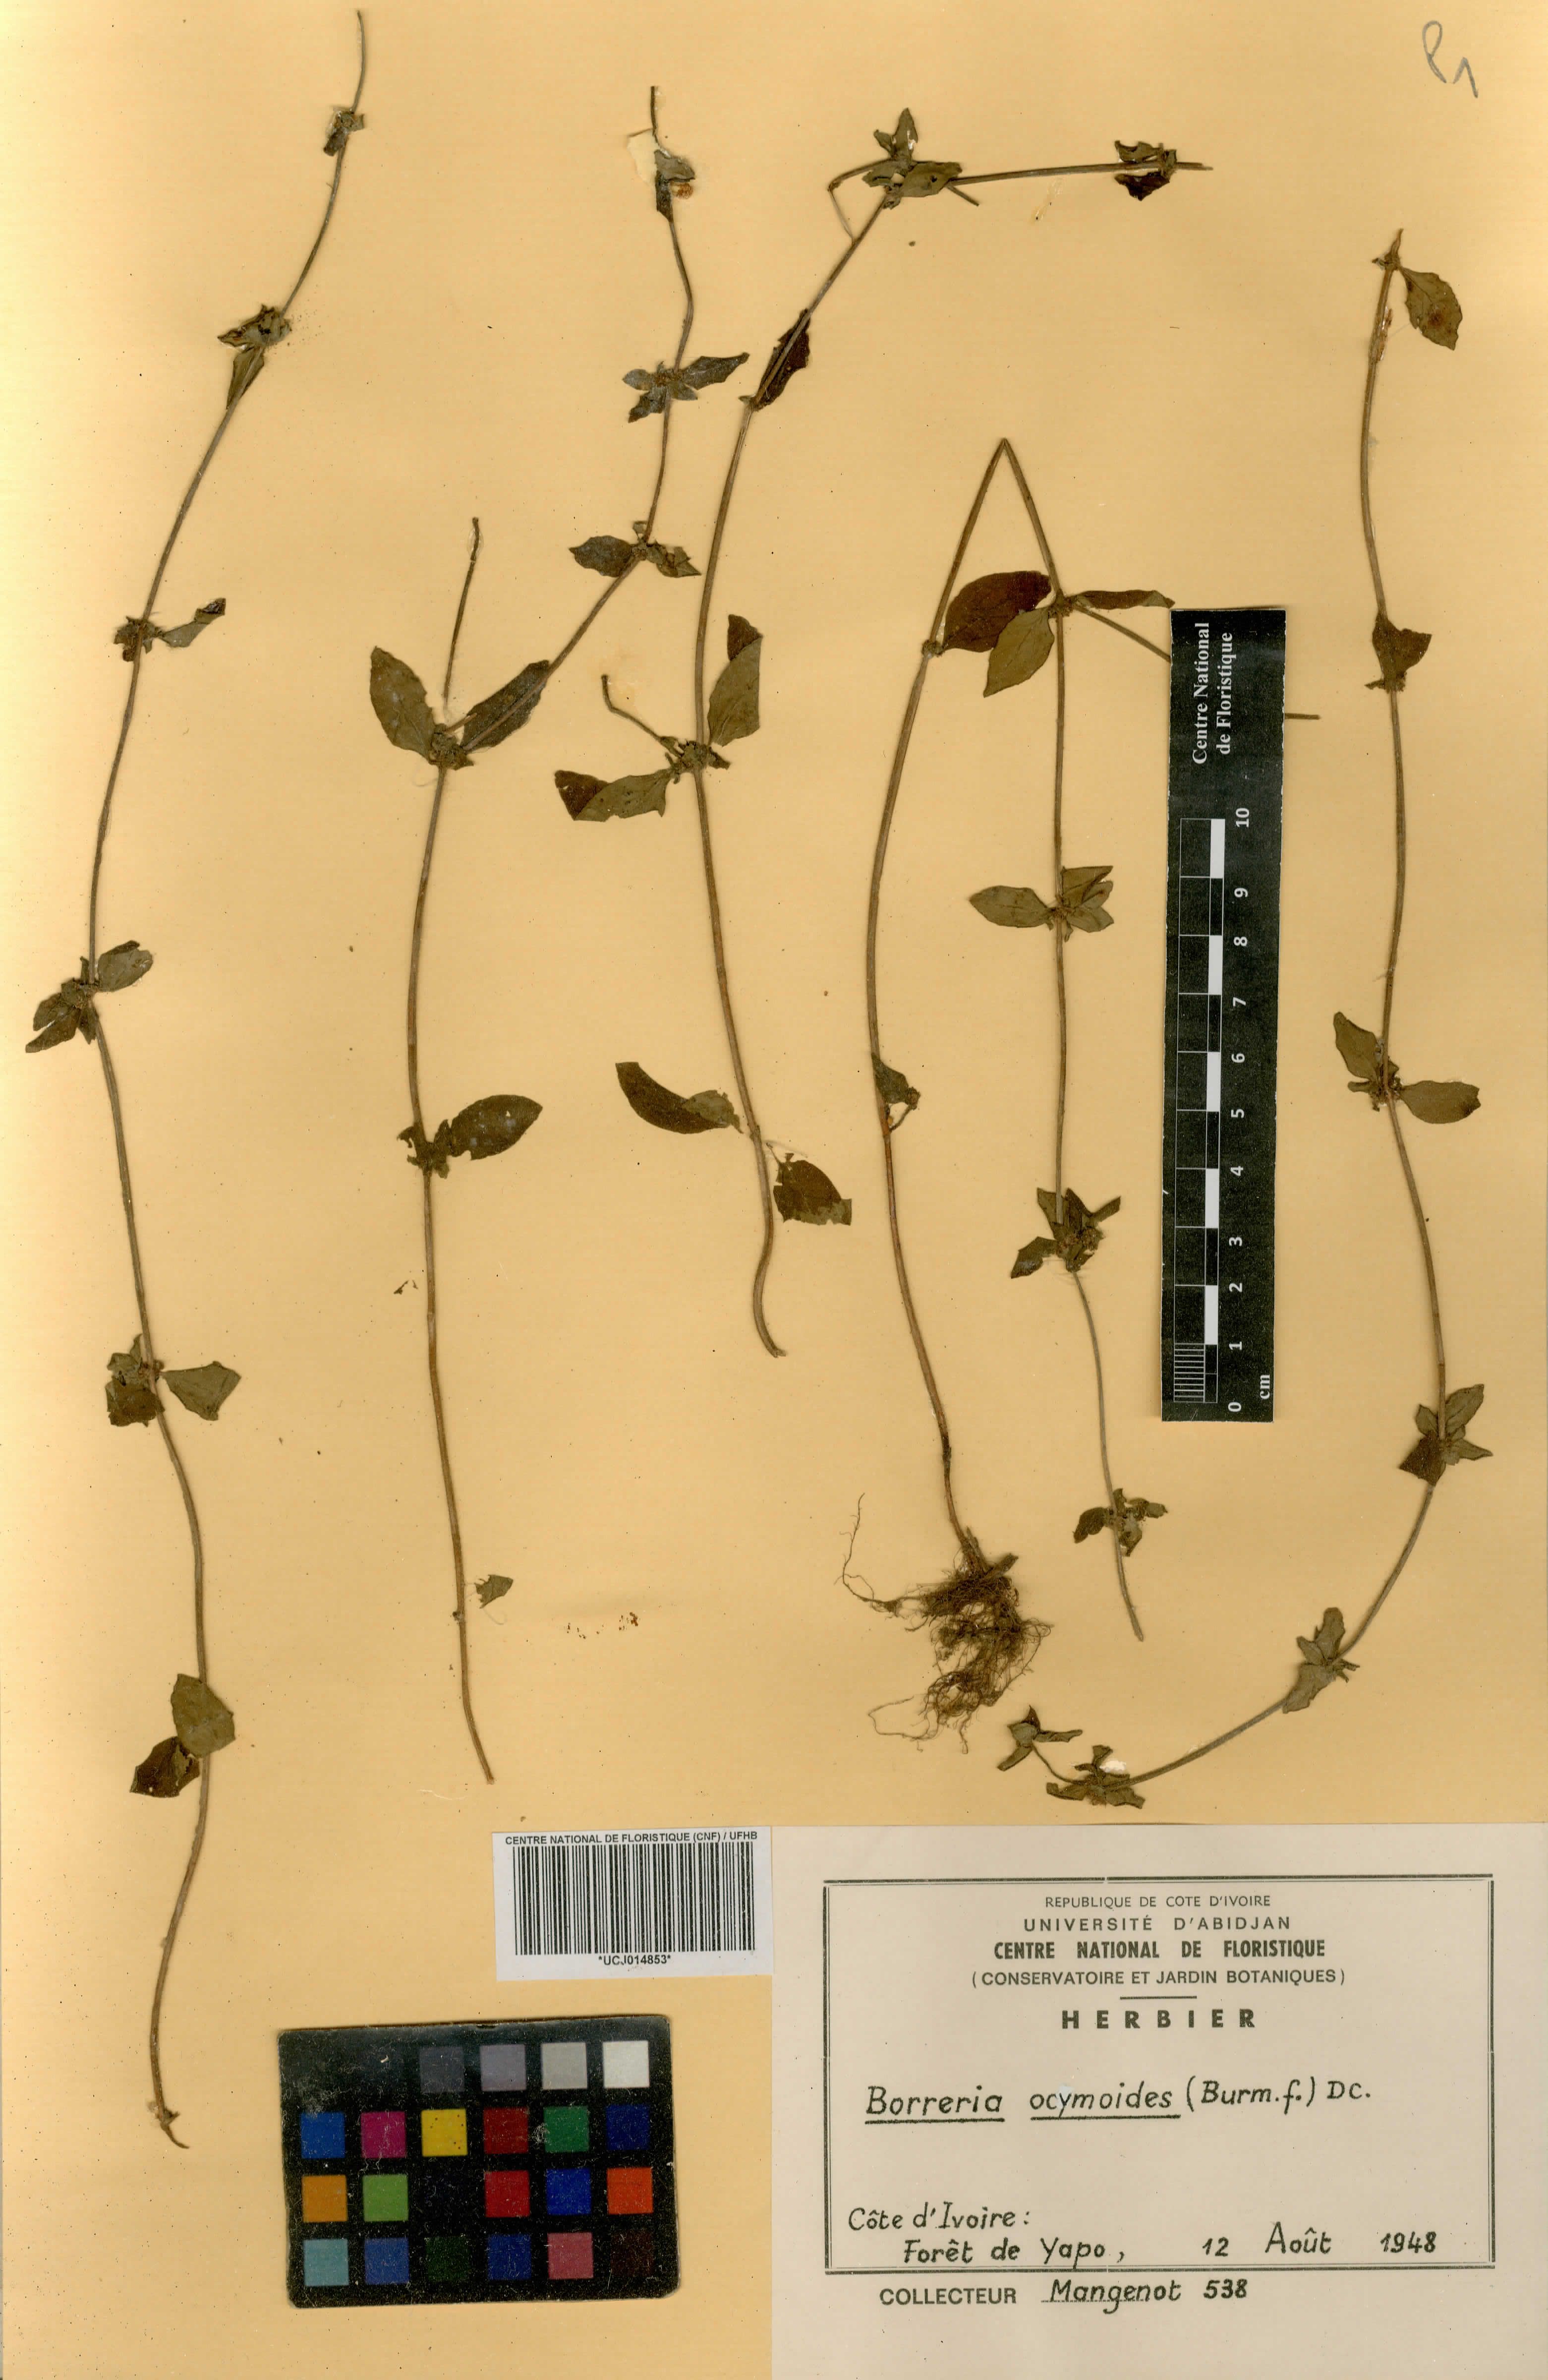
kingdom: Plantae
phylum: Tracheophyta
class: Magnoliopsida
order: Gentianales
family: Rubiaceae
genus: Spermacoce
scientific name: Spermacoce ocymoides
